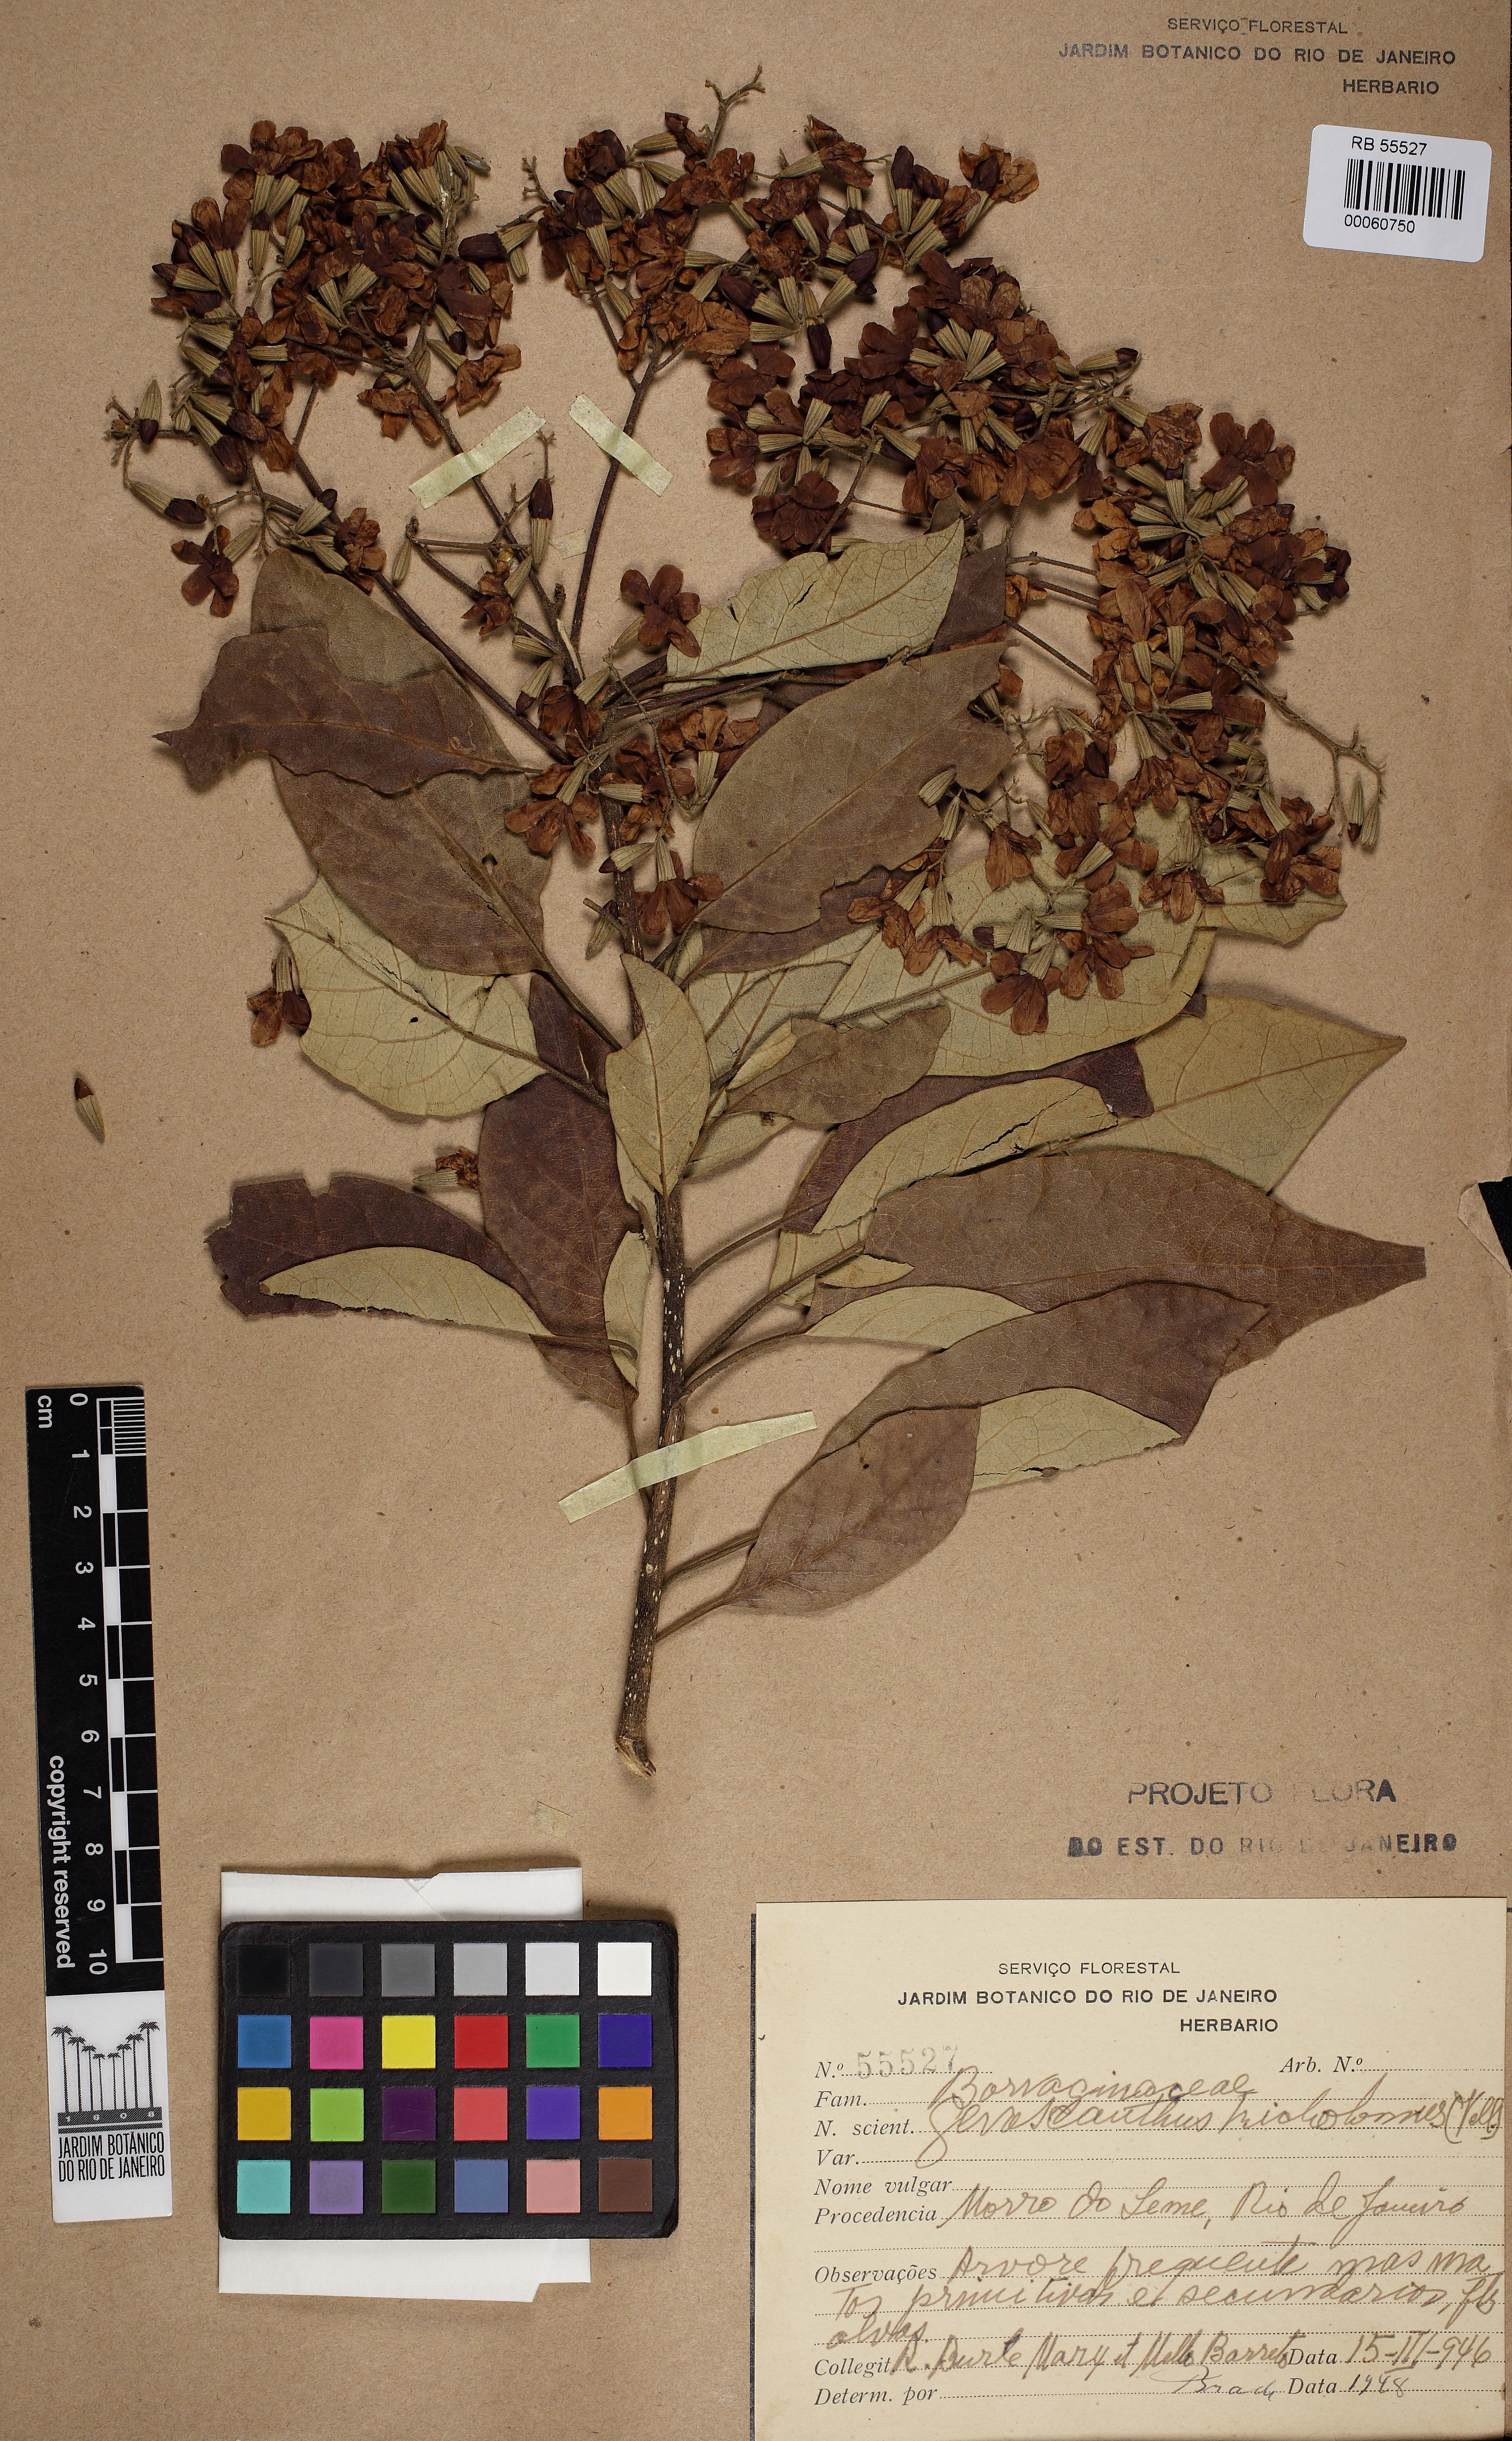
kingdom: Plantae
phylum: Tracheophyta
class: Magnoliopsida
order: Boraginales
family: Cordiaceae
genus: Cordia
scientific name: Cordia trichotoma
